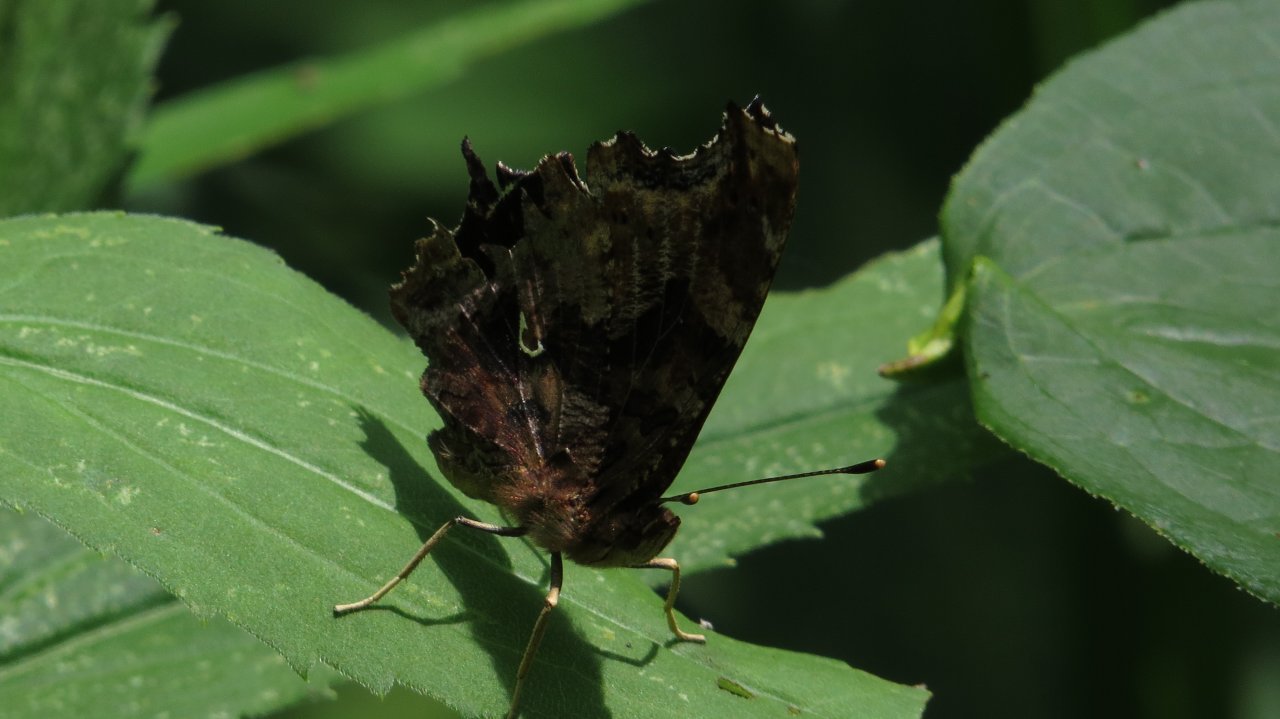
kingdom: Animalia
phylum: Arthropoda
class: Insecta
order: Lepidoptera
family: Nymphalidae
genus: Polygonia
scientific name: Polygonia comma
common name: Eastern Comma
